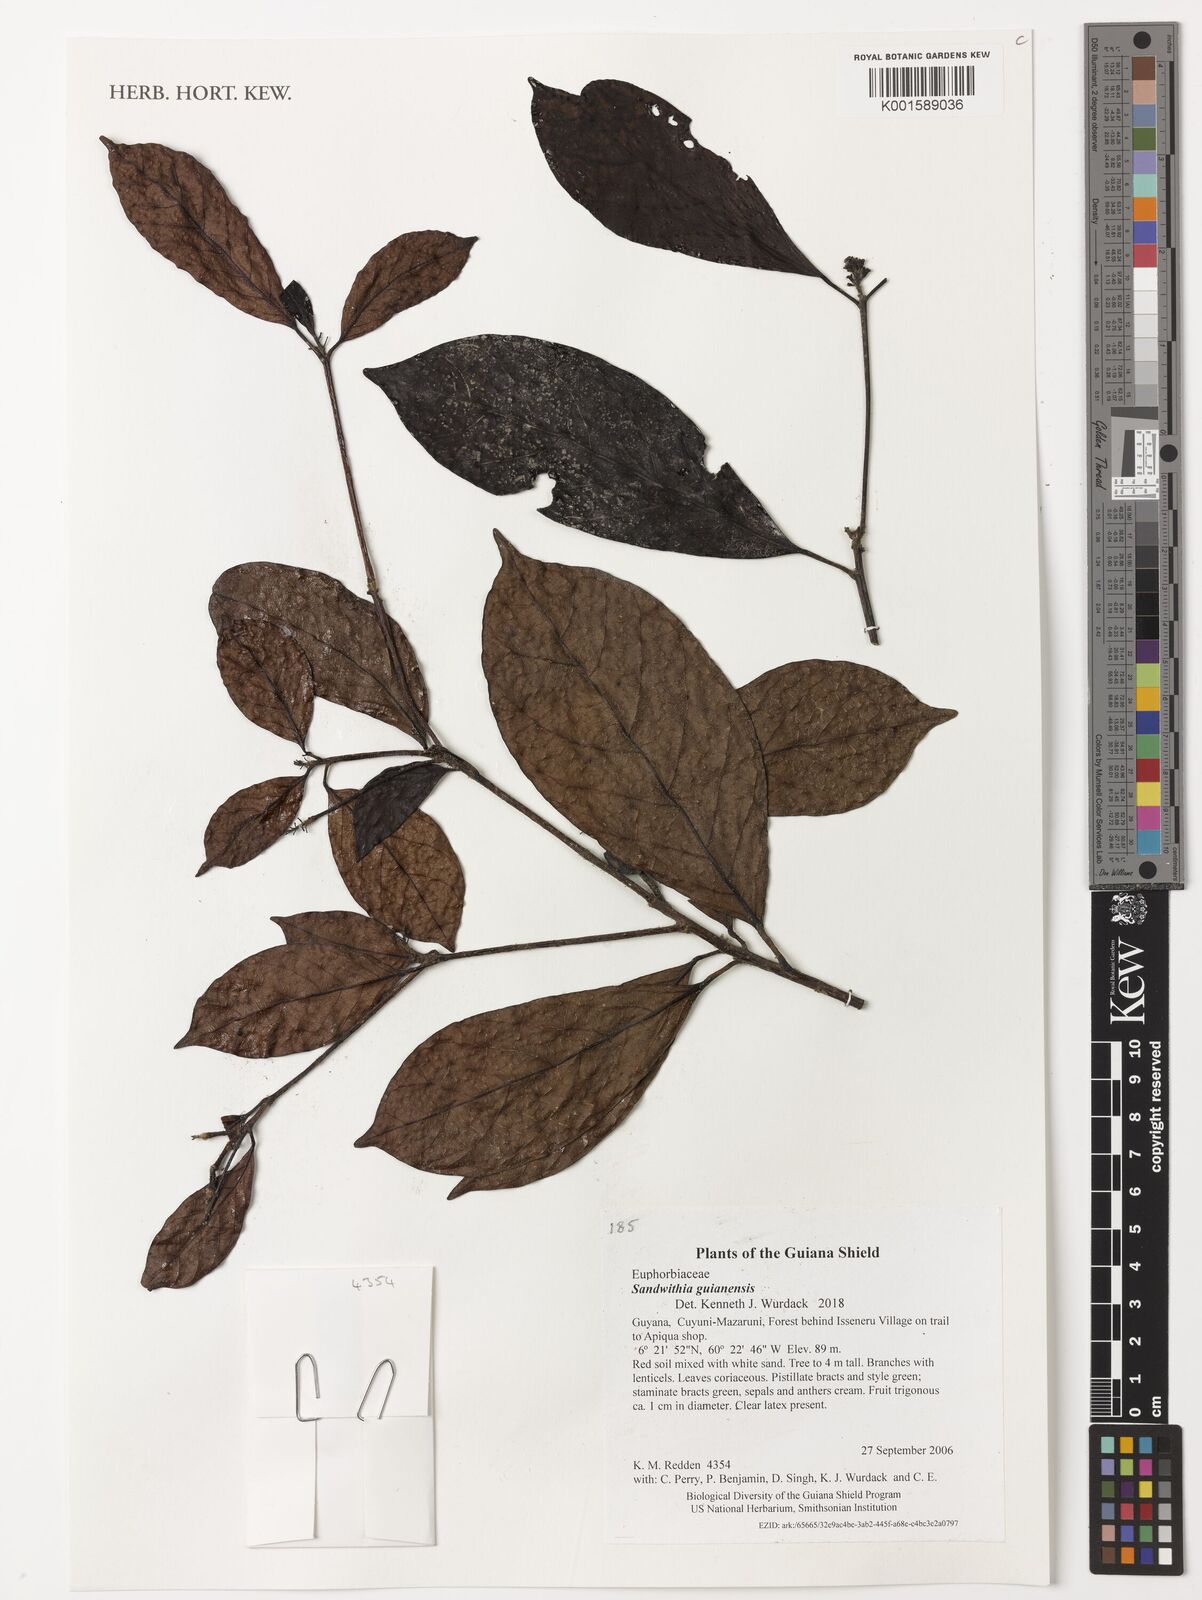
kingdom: Plantae
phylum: Tracheophyta
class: Magnoliopsida
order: Malpighiales
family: Euphorbiaceae
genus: Sandwithia
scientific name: Sandwithia guyanensis
